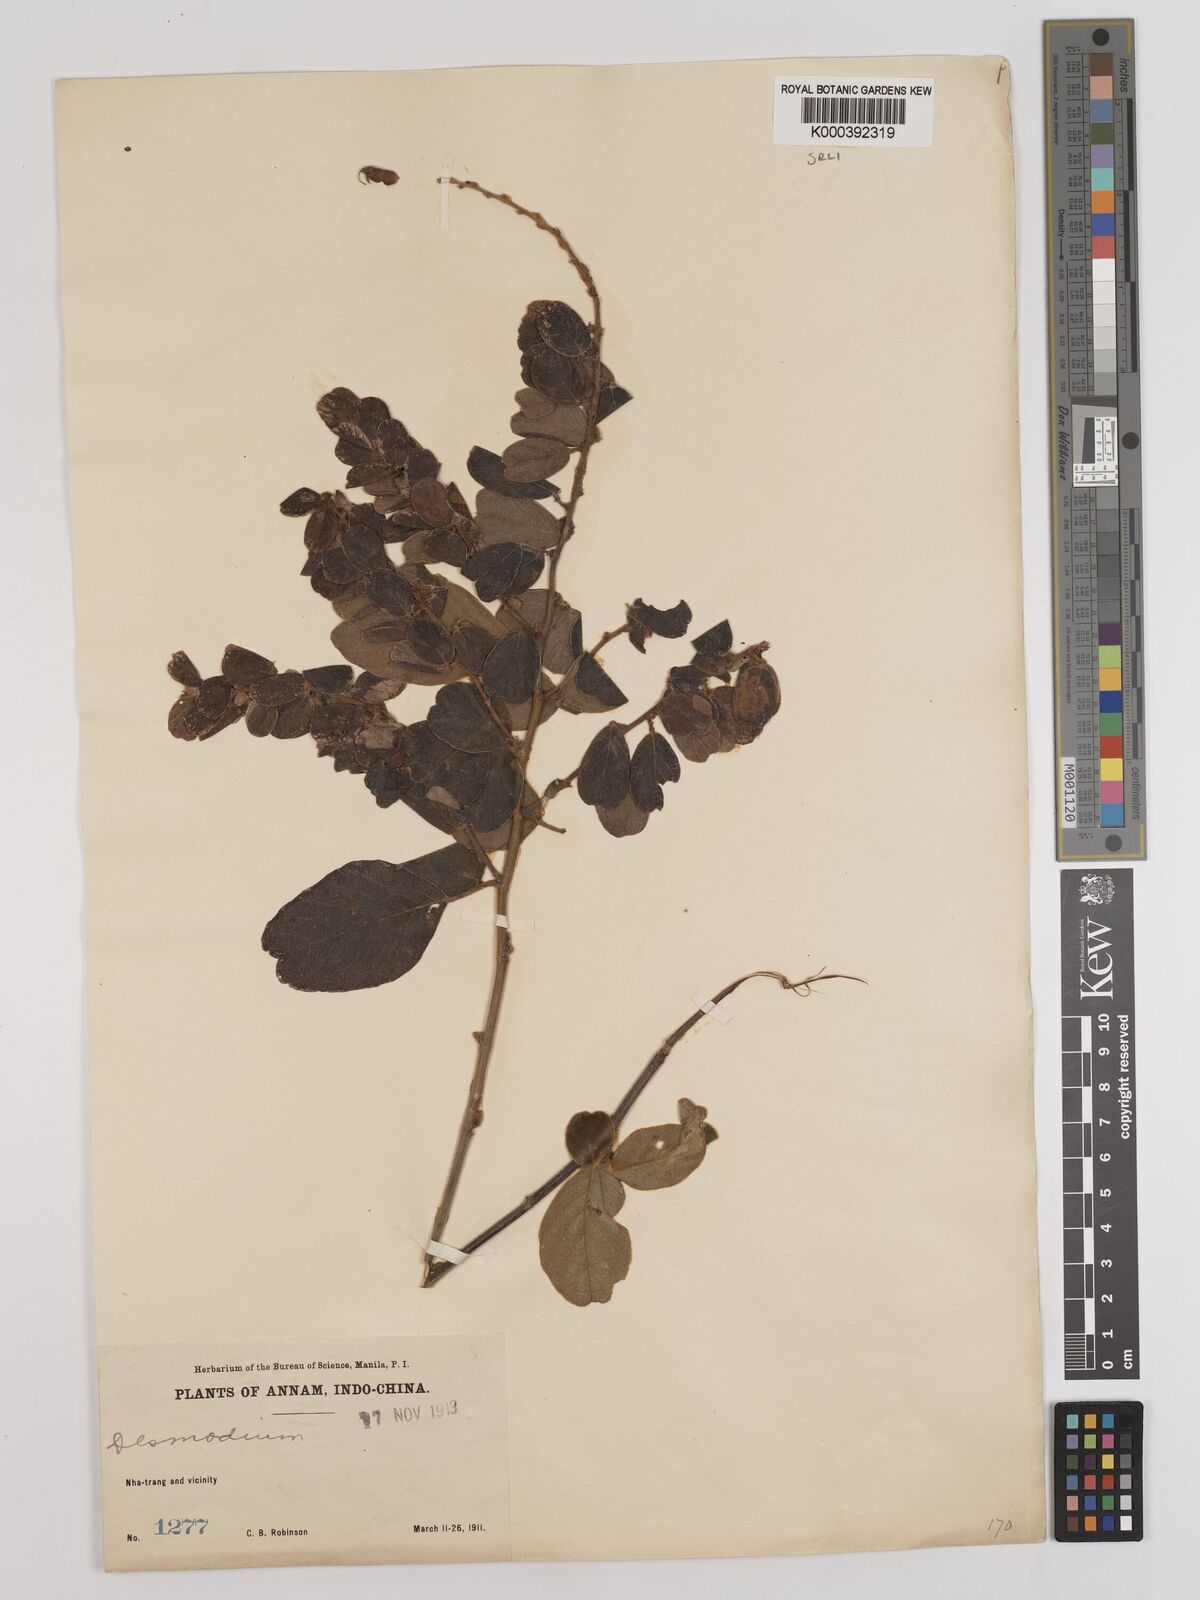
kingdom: Plantae
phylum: Tracheophyta
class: Magnoliopsida
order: Fabales
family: Fabaceae
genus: Phyllodium
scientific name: Phyllodium elegans
